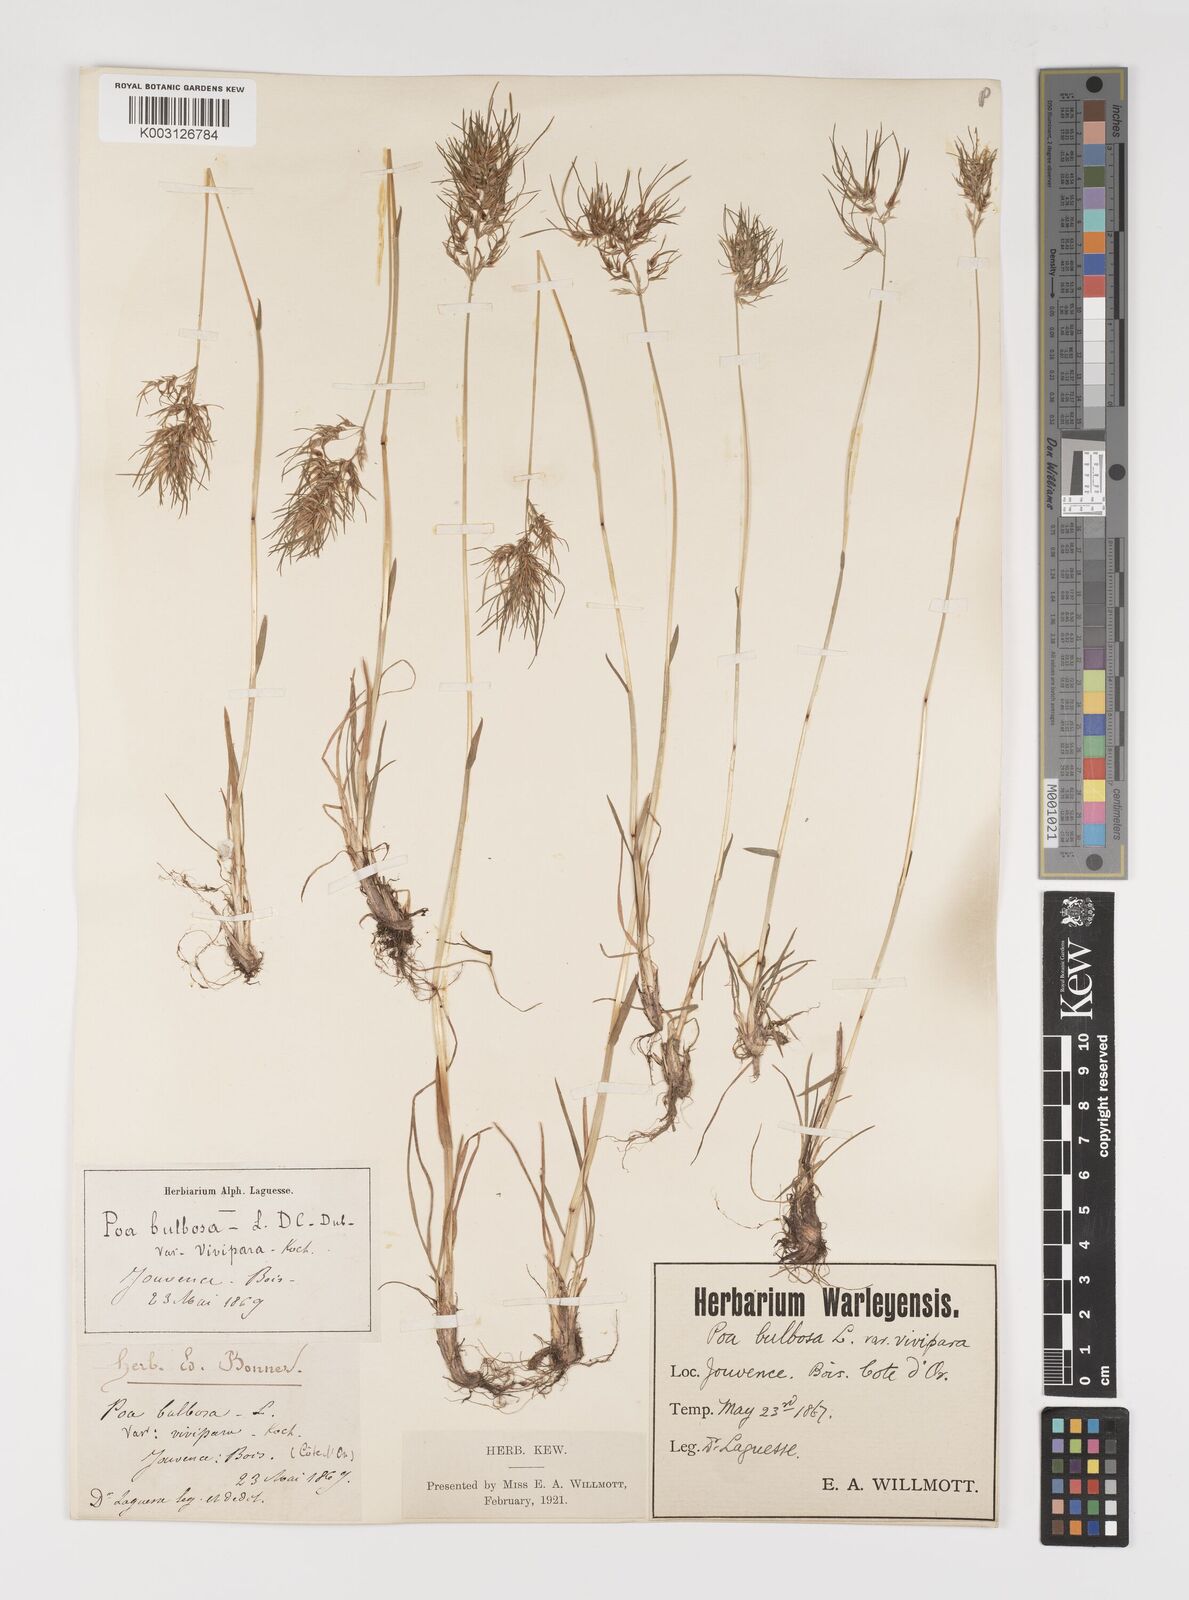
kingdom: Plantae
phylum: Tracheophyta
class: Liliopsida
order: Poales
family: Poaceae
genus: Poa
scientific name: Poa bulbosa
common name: Bulbous bluegrass
